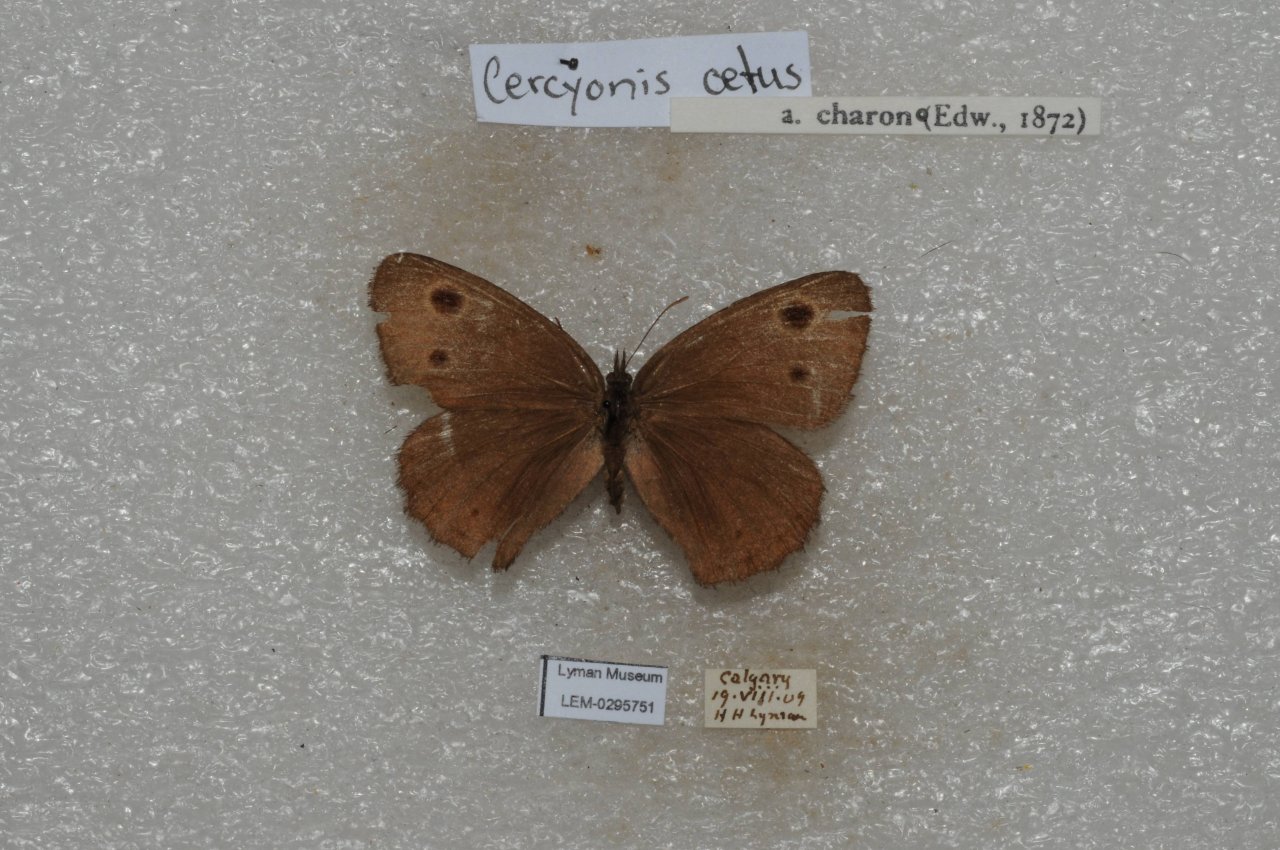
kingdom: Animalia
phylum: Arthropoda
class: Insecta
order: Lepidoptera
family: Nymphalidae
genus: Cercyonis
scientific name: Cercyonis oetus
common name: Small Wood-Nymph
